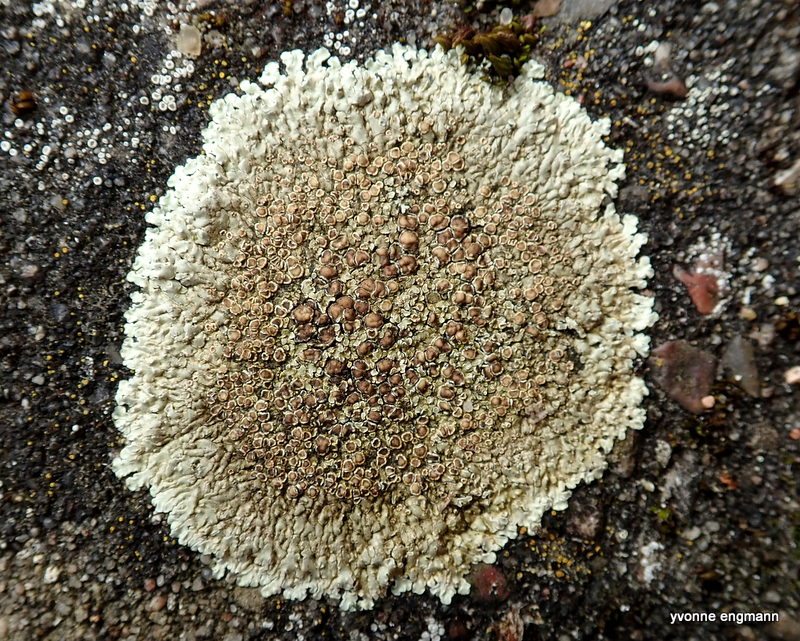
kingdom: Fungi
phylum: Ascomycota
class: Lecanoromycetes
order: Lecanorales
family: Lecanoraceae
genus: Protoparmeliopsis
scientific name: Protoparmeliopsis muralis
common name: randfliget kantskivelav
